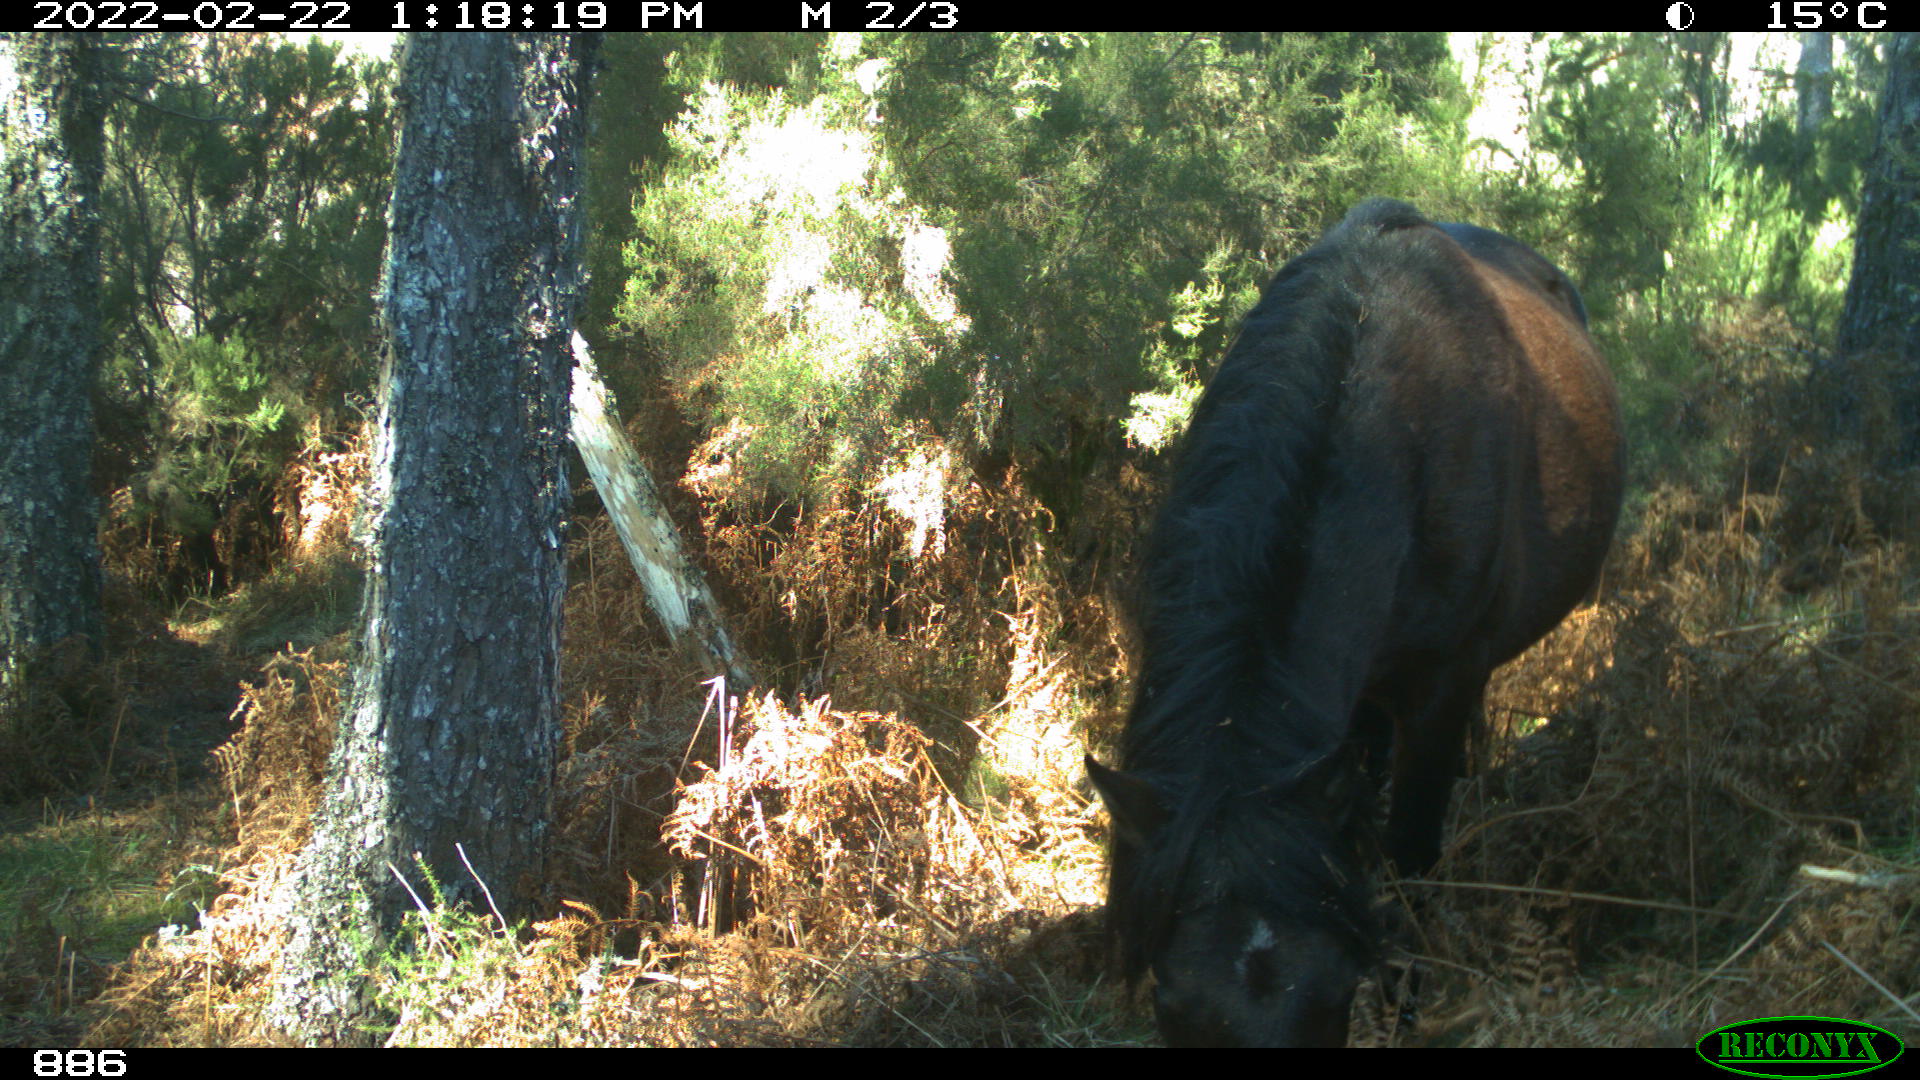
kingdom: Animalia
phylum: Chordata
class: Mammalia
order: Perissodactyla
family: Equidae
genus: Equus
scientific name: Equus caballus
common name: Horse
